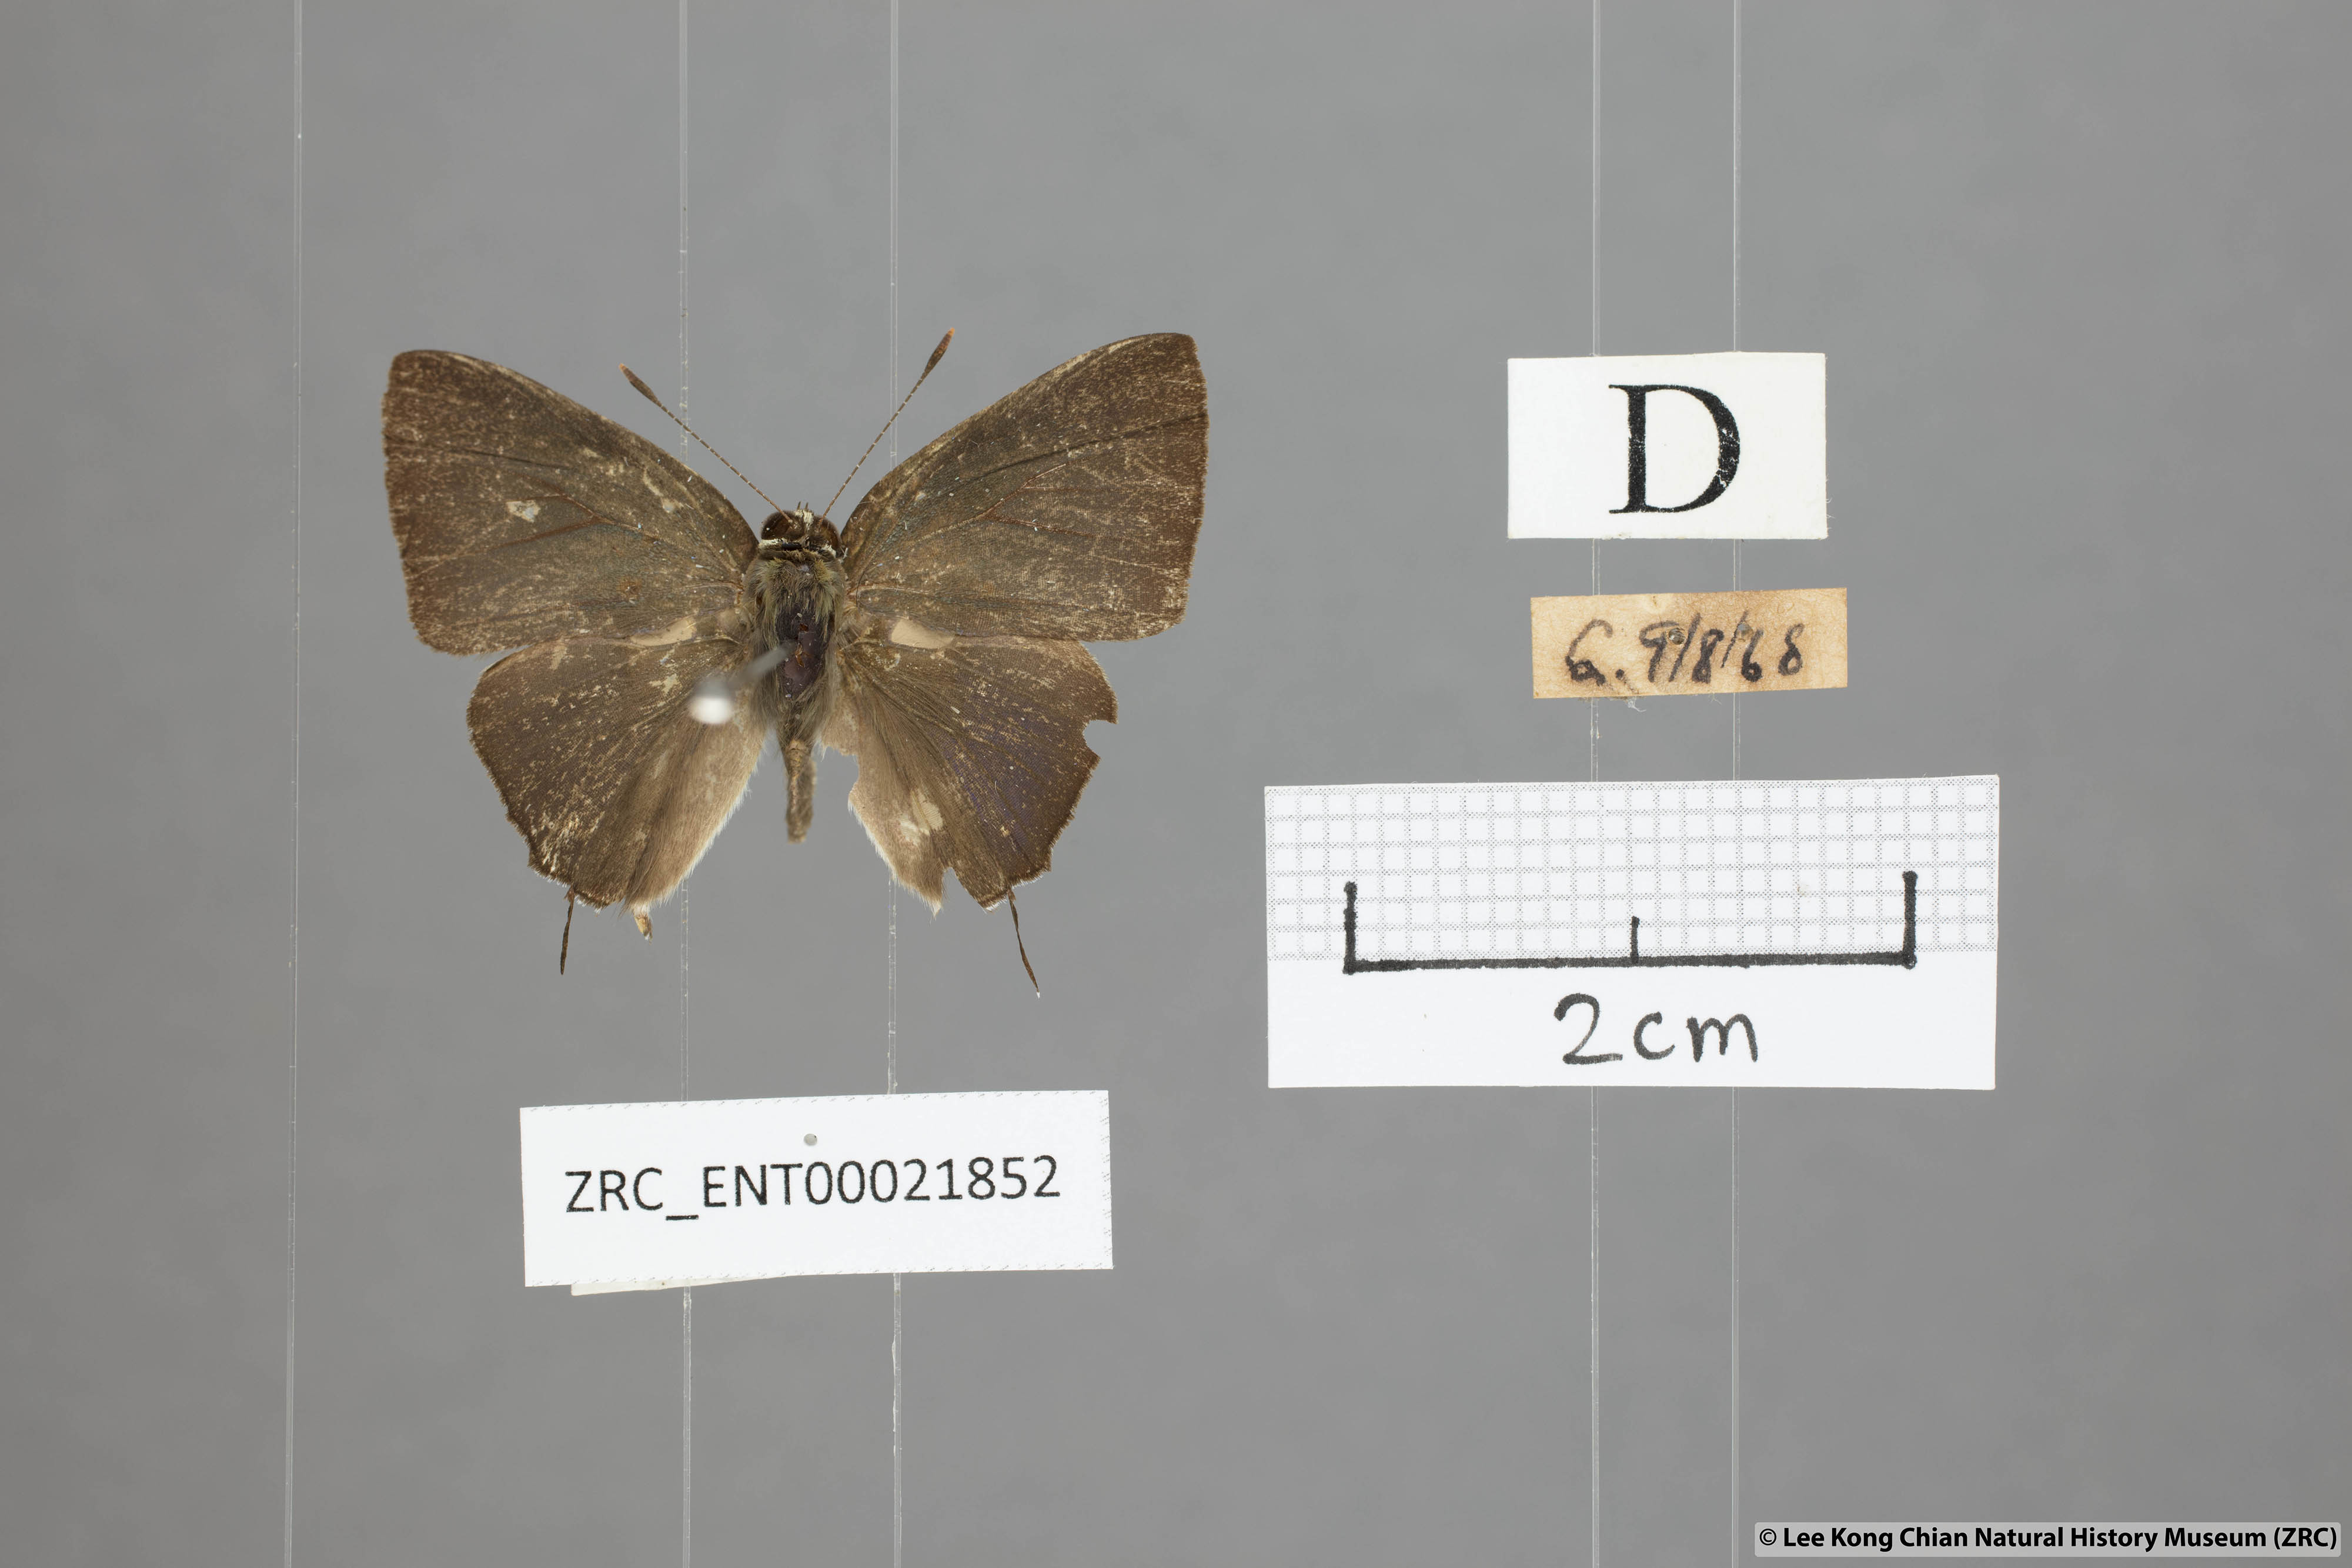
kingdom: Animalia
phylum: Arthropoda
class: Insecta
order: Lepidoptera
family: Lycaenidae
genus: Rapala
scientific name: Rapala manea
